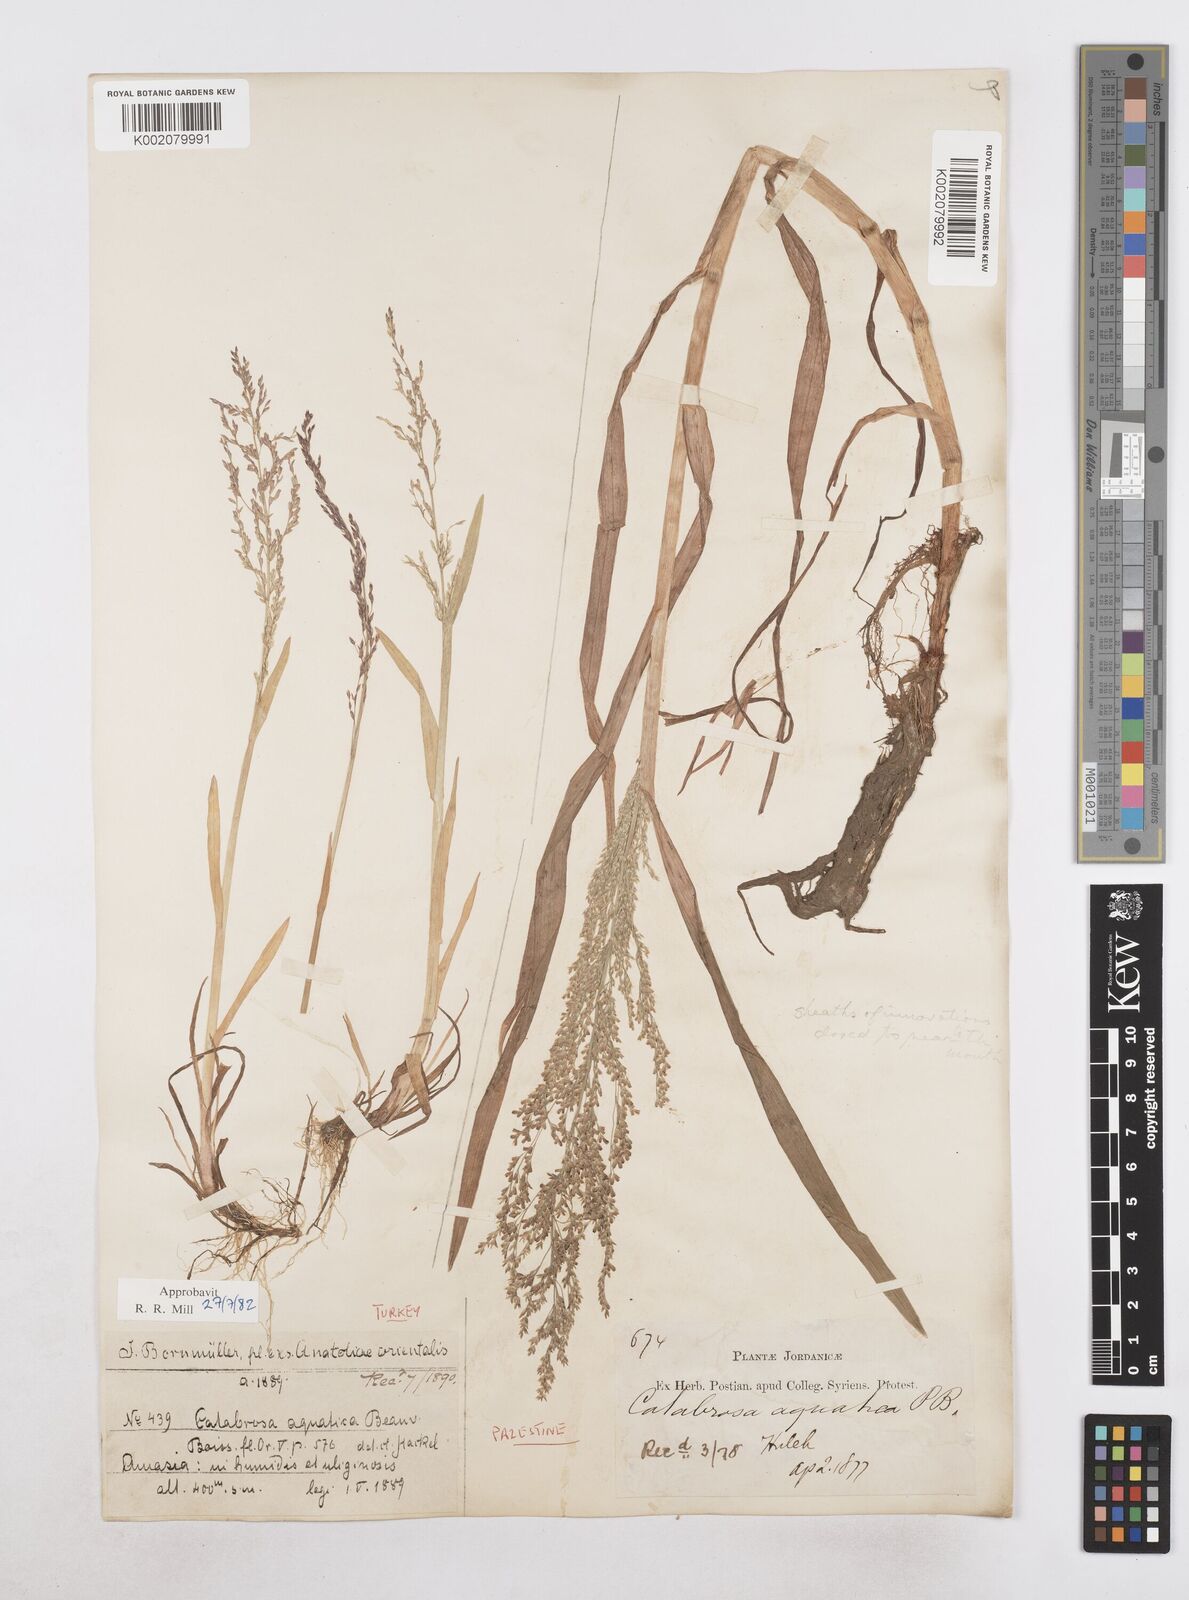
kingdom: Plantae
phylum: Tracheophyta
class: Liliopsida
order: Poales
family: Poaceae
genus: Catabrosa
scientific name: Catabrosa aquatica
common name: Whorl-grass
